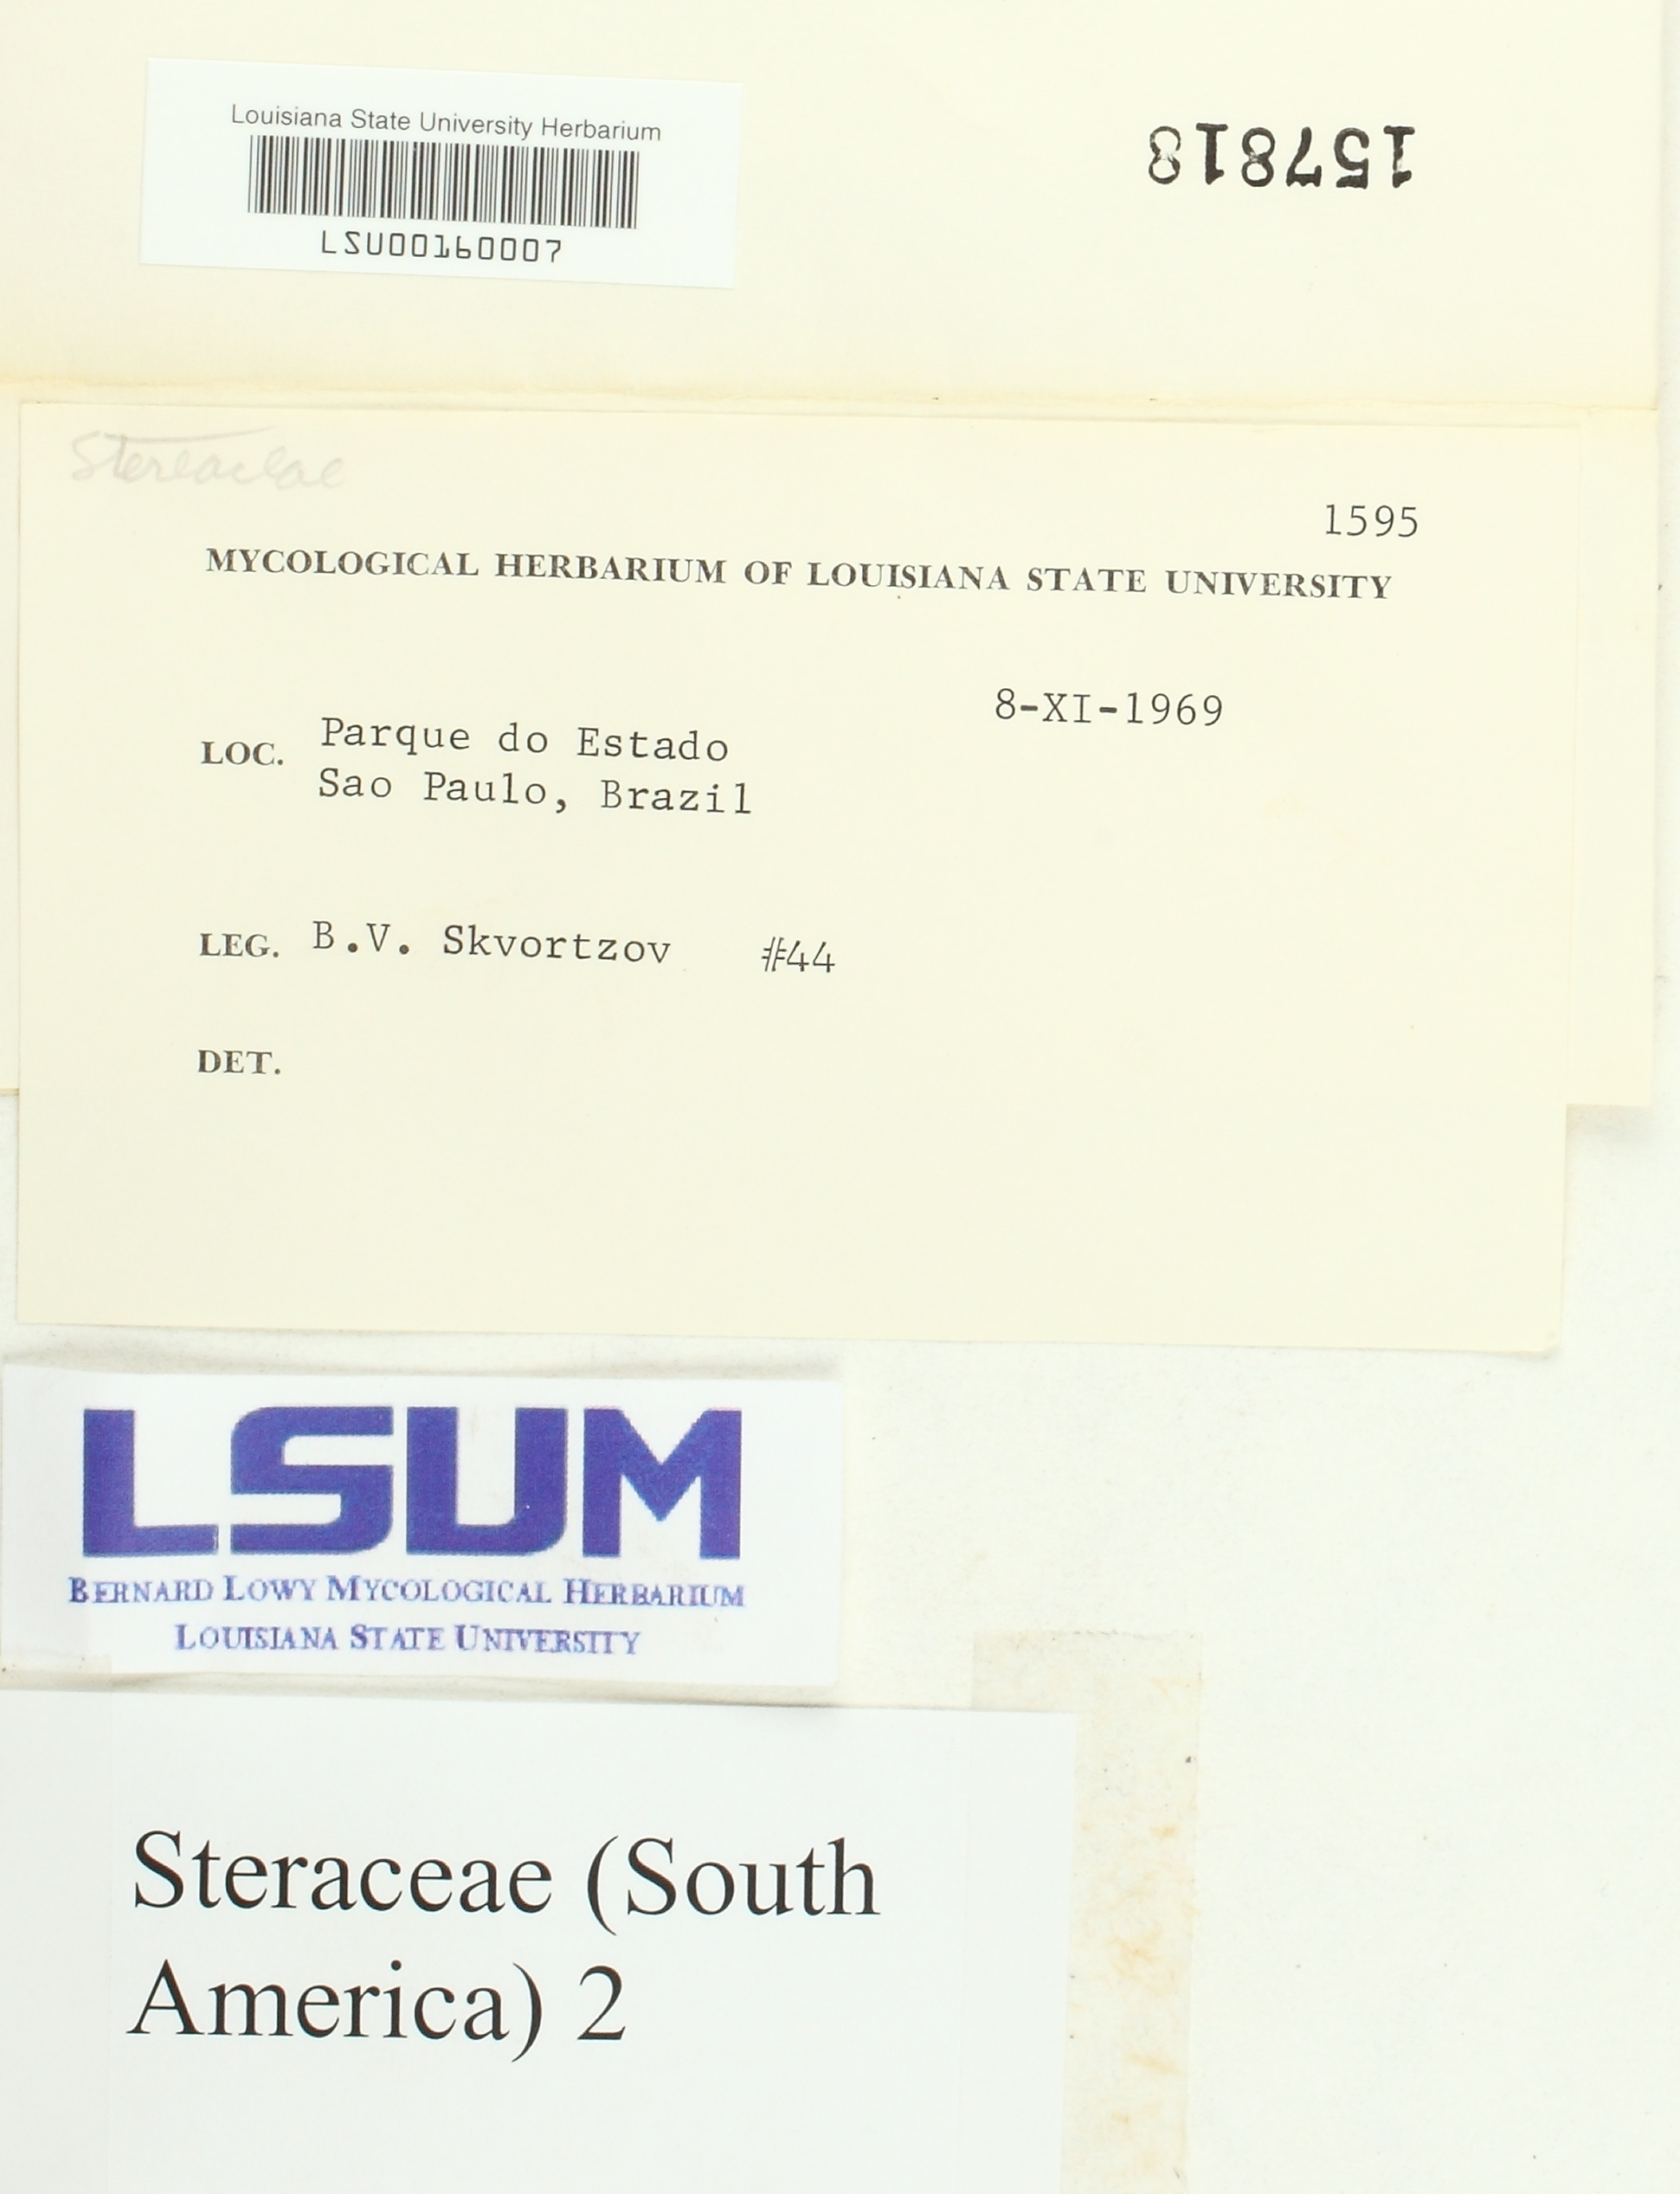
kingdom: Fungi
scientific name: Fungi
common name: Fungi
